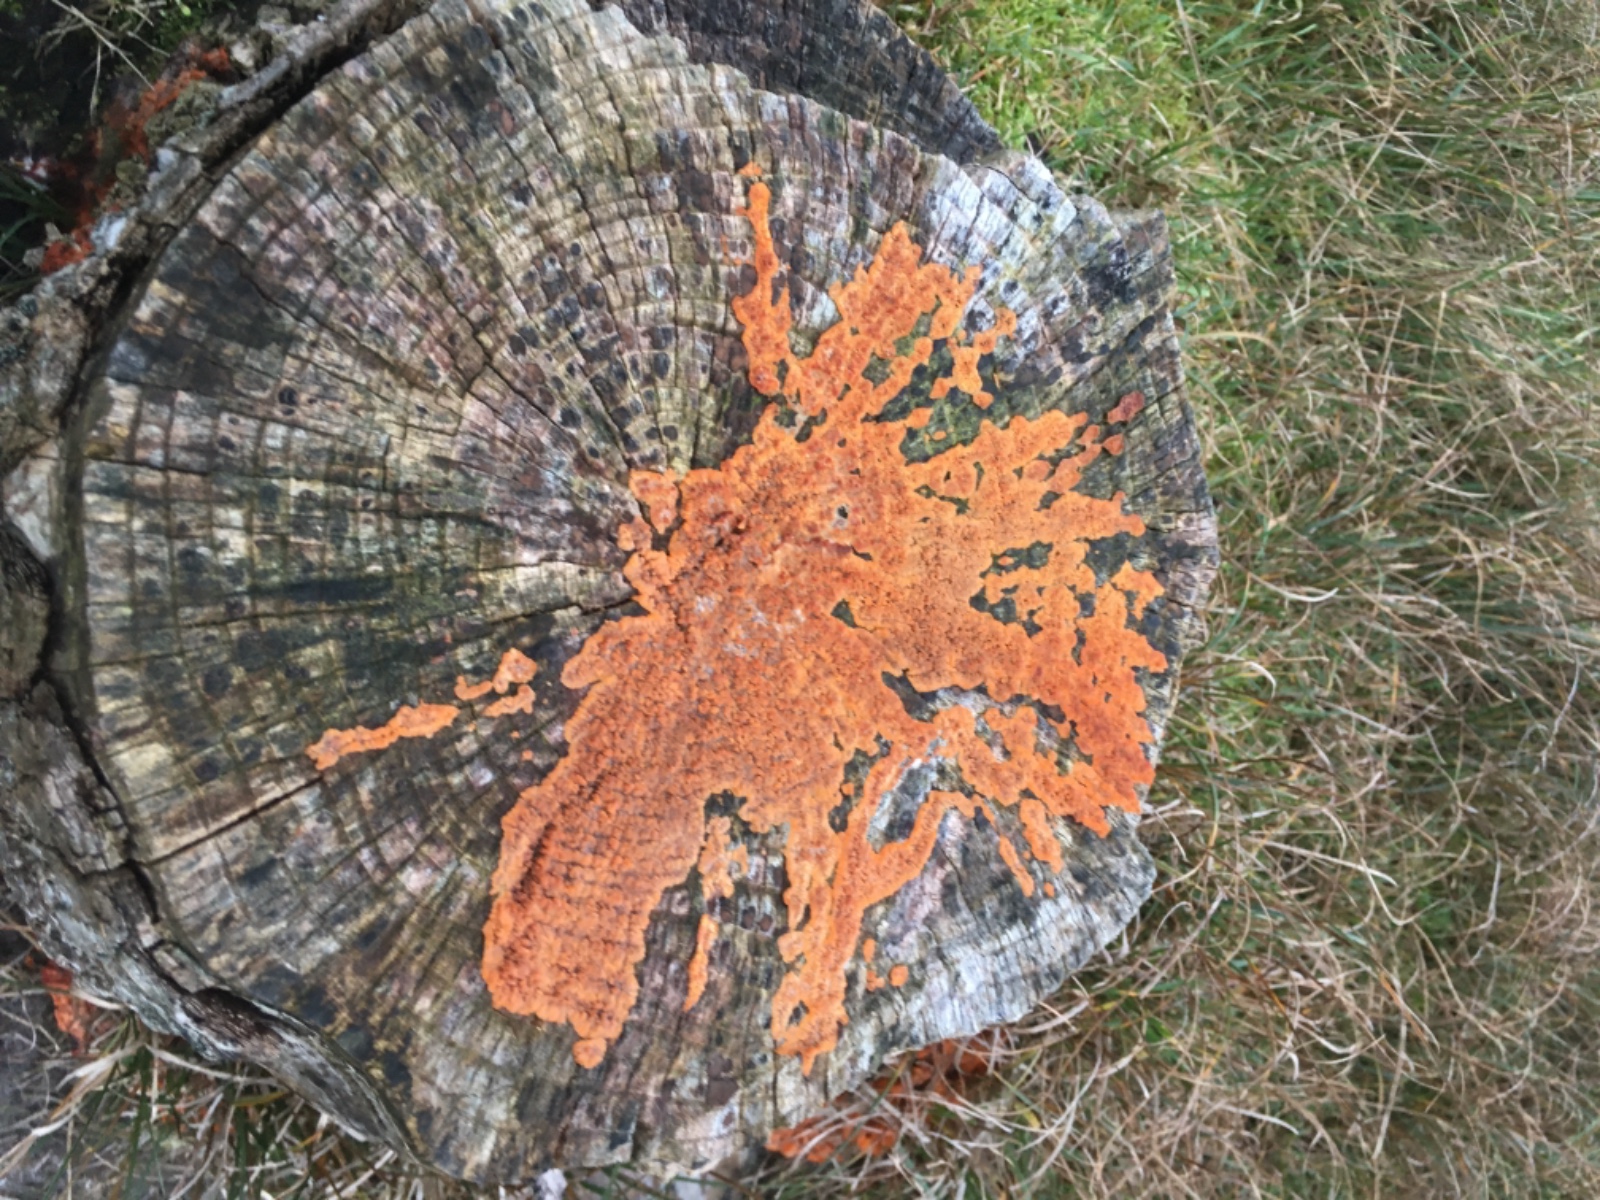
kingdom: Fungi
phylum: Basidiomycota
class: Agaricomycetes
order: Polyporales
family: Meruliaceae
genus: Phlebia
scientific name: Phlebia radiata
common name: stråle-åresvamp
